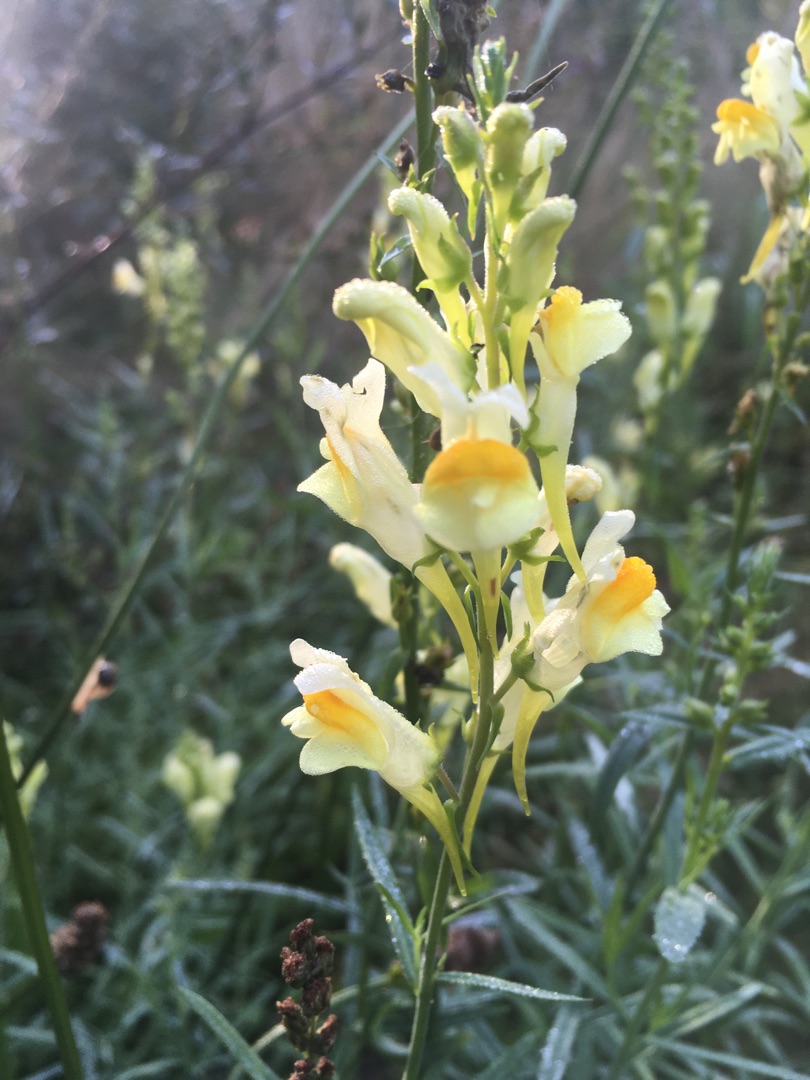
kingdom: Plantae
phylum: Tracheophyta
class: Magnoliopsida
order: Lamiales
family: Plantaginaceae
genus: Linaria
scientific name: Linaria vulgaris
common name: Almindelig torskemund
